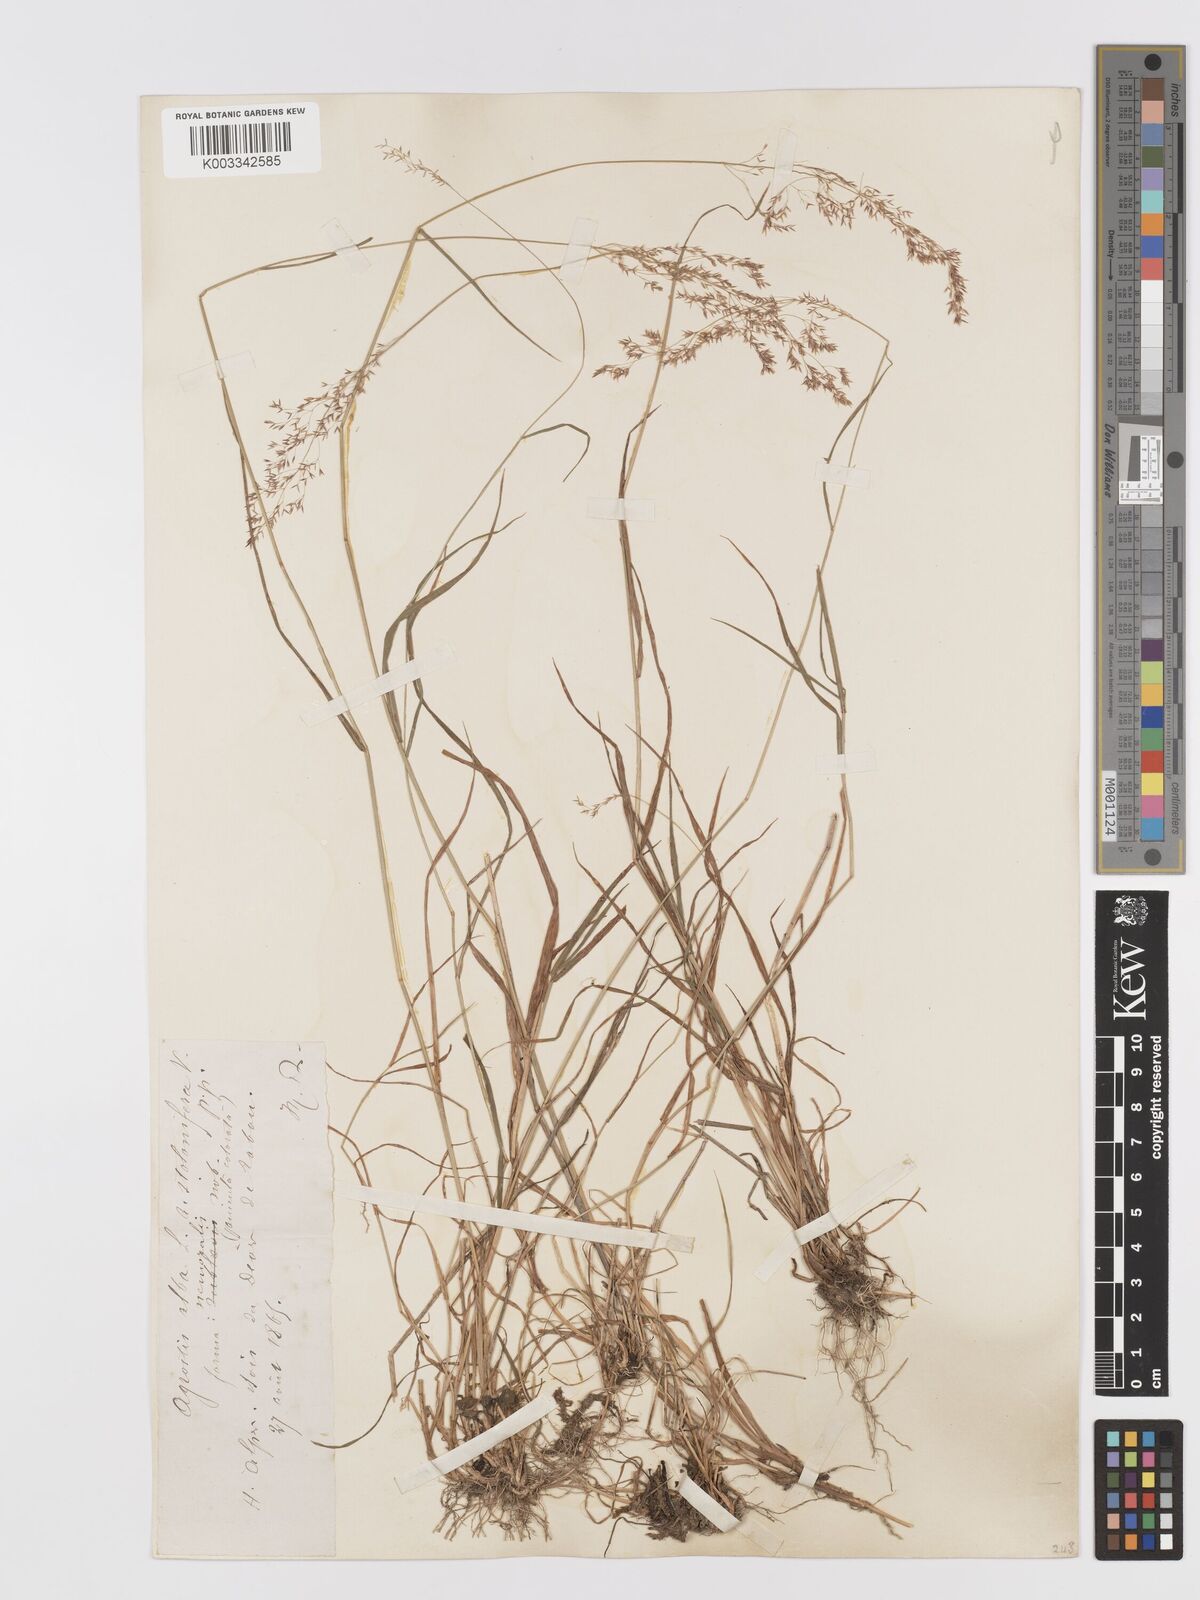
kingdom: Plantae
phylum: Tracheophyta
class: Liliopsida
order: Poales
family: Poaceae
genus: Agrostis
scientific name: Agrostis
